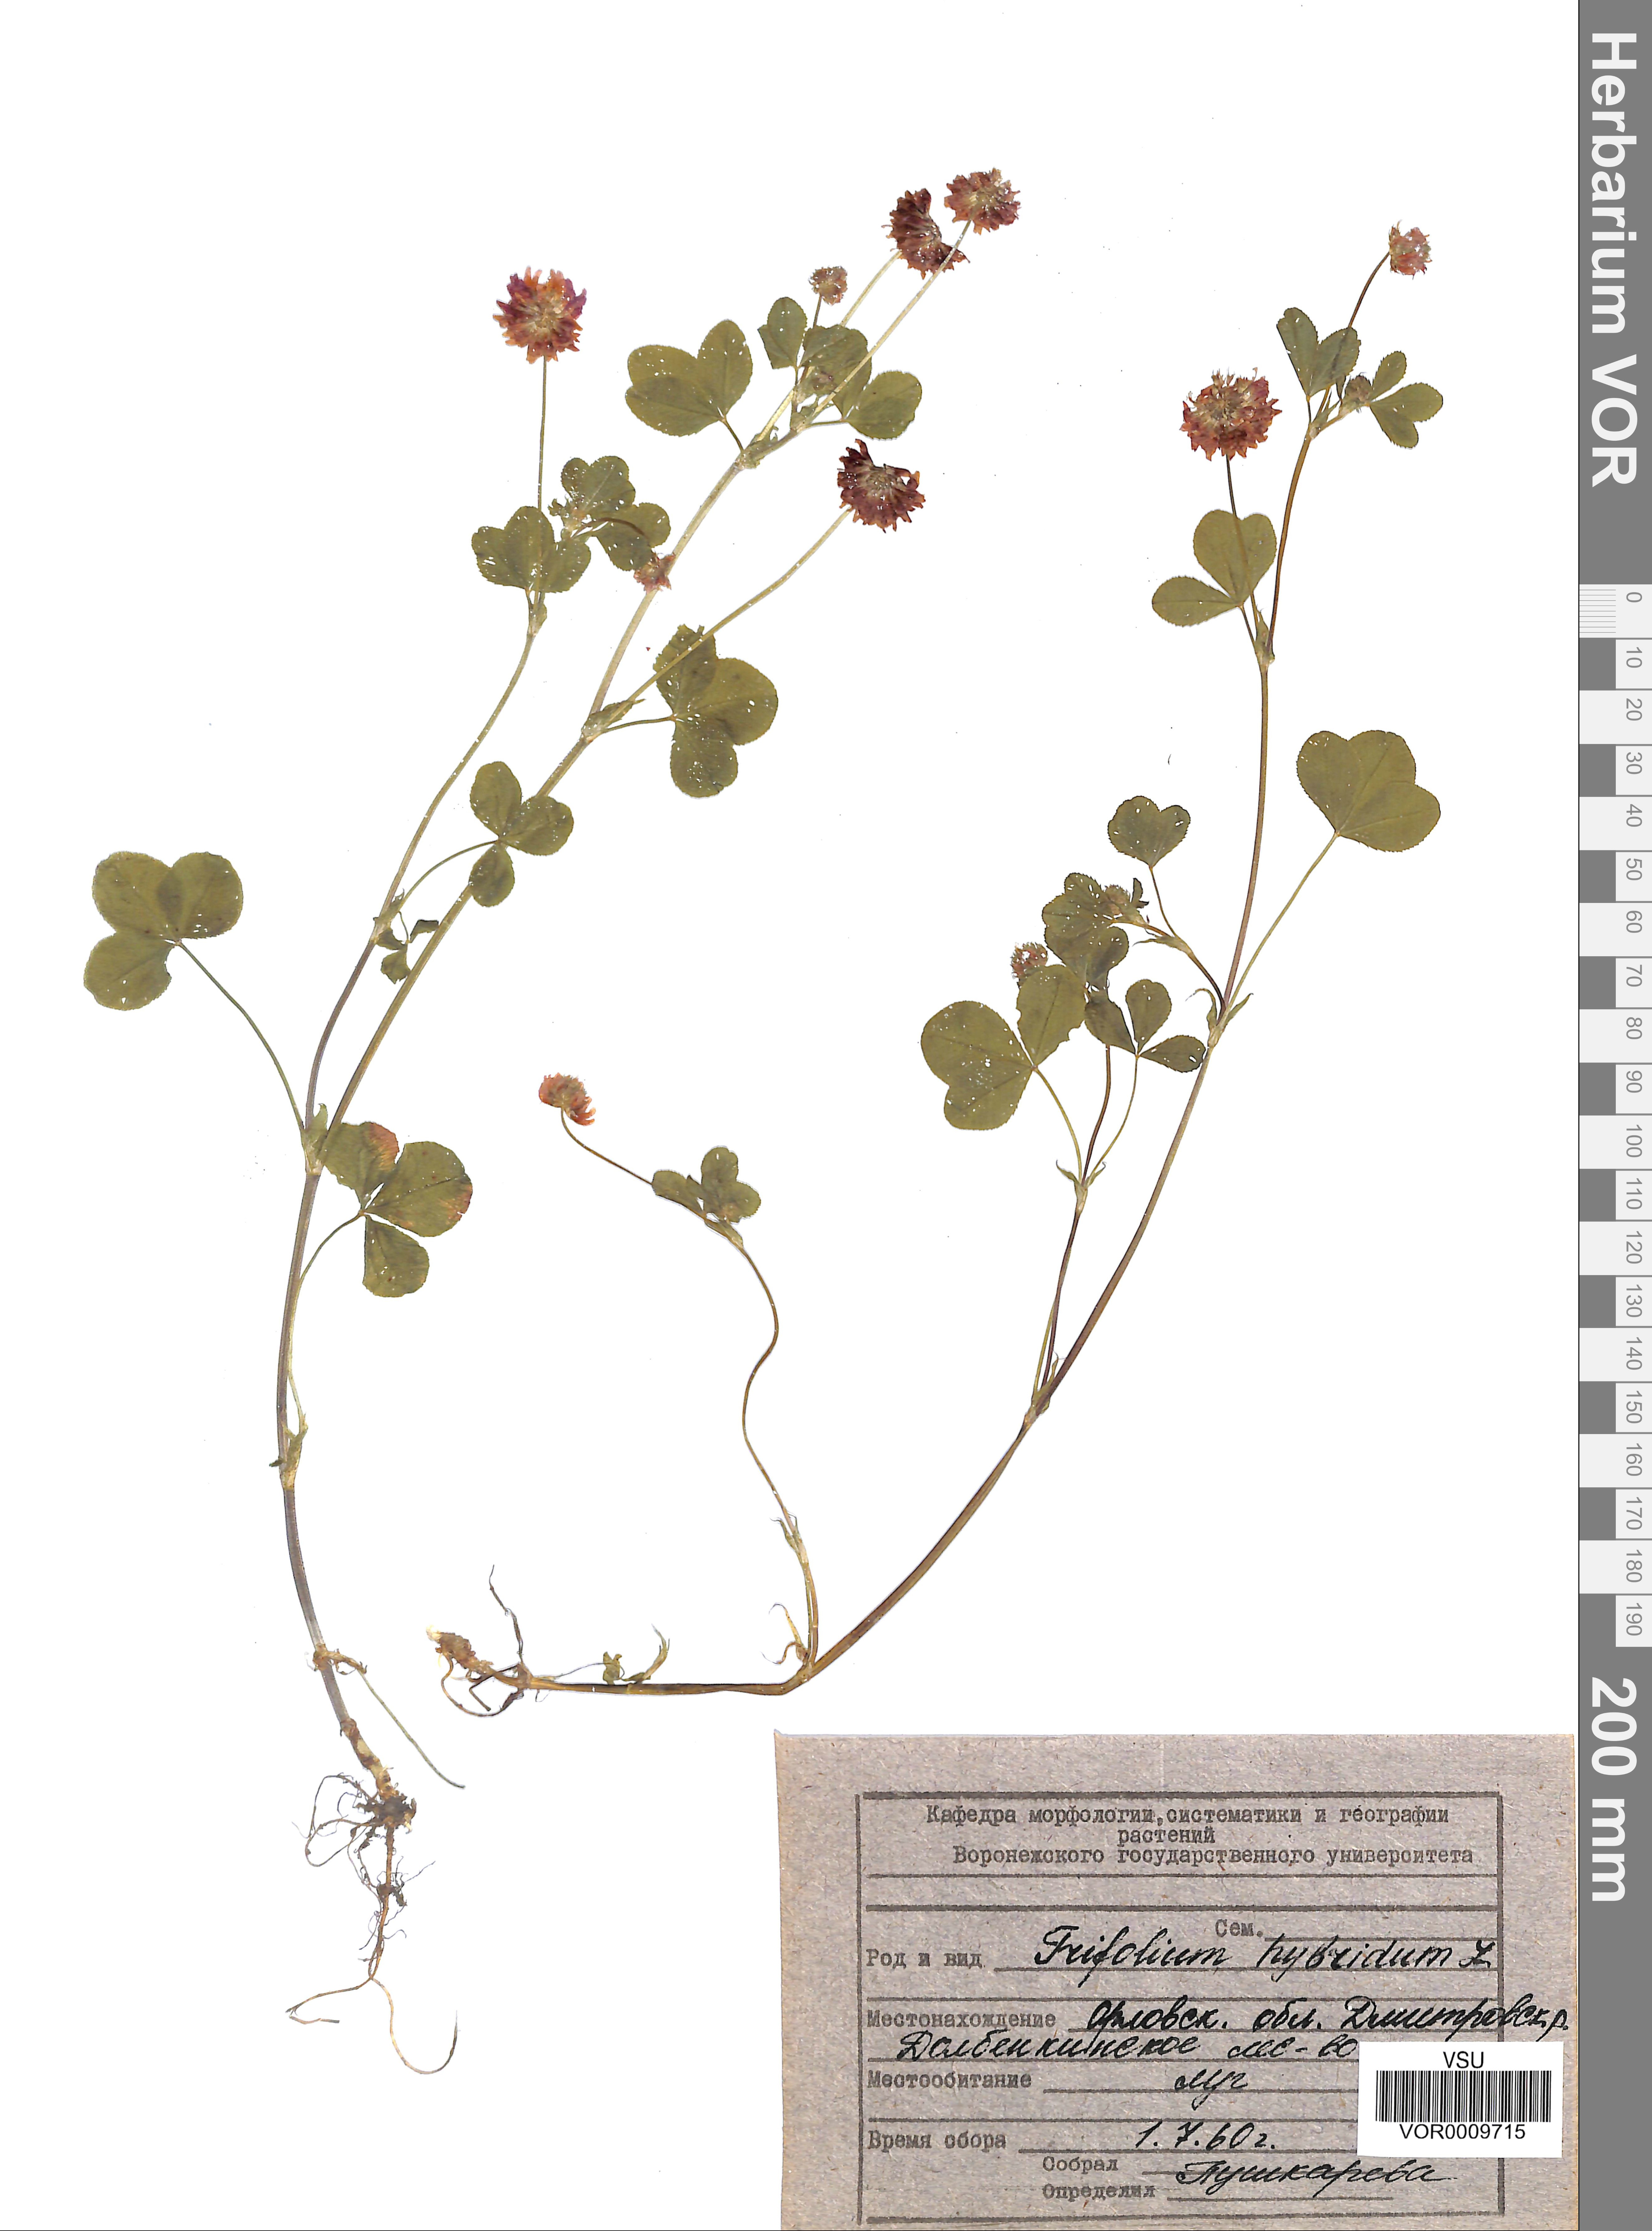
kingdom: Plantae
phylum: Tracheophyta
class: Magnoliopsida
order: Fabales
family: Fabaceae
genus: Trifolium
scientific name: Trifolium hybridum
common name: Alsike clover
